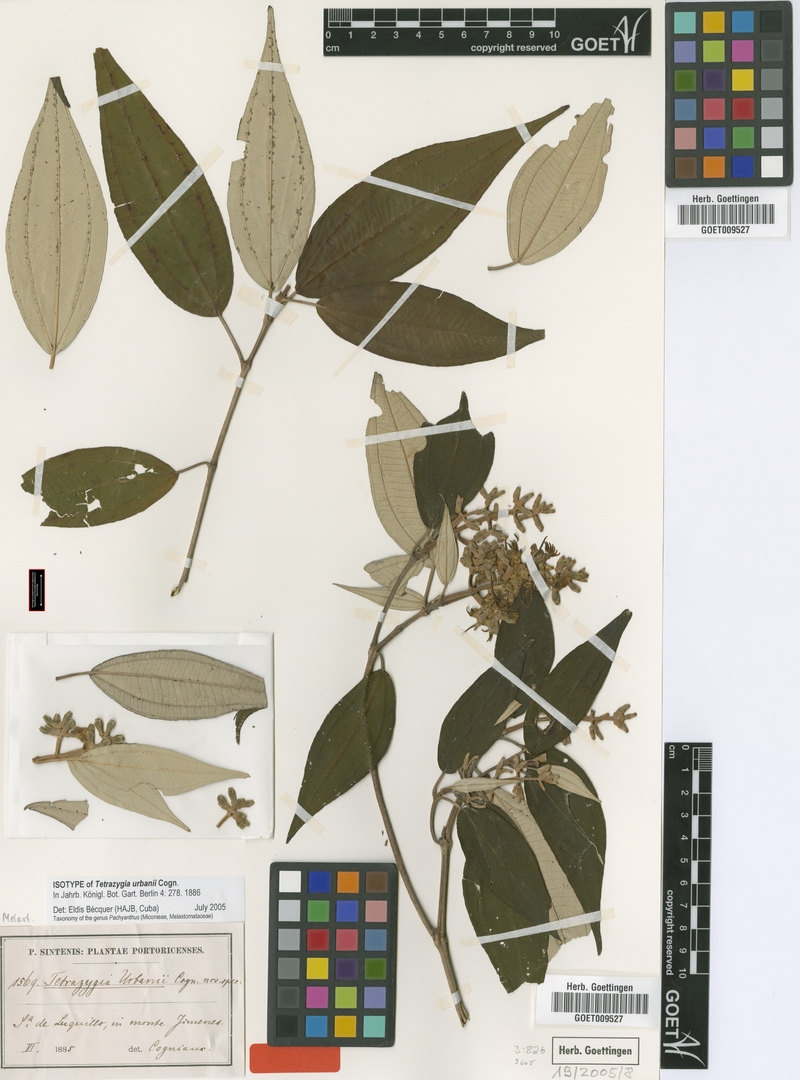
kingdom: Plantae
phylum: Tracheophyta
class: Magnoliopsida
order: Myrtales
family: Melastomataceae
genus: Miconia
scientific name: Miconia urbanii
